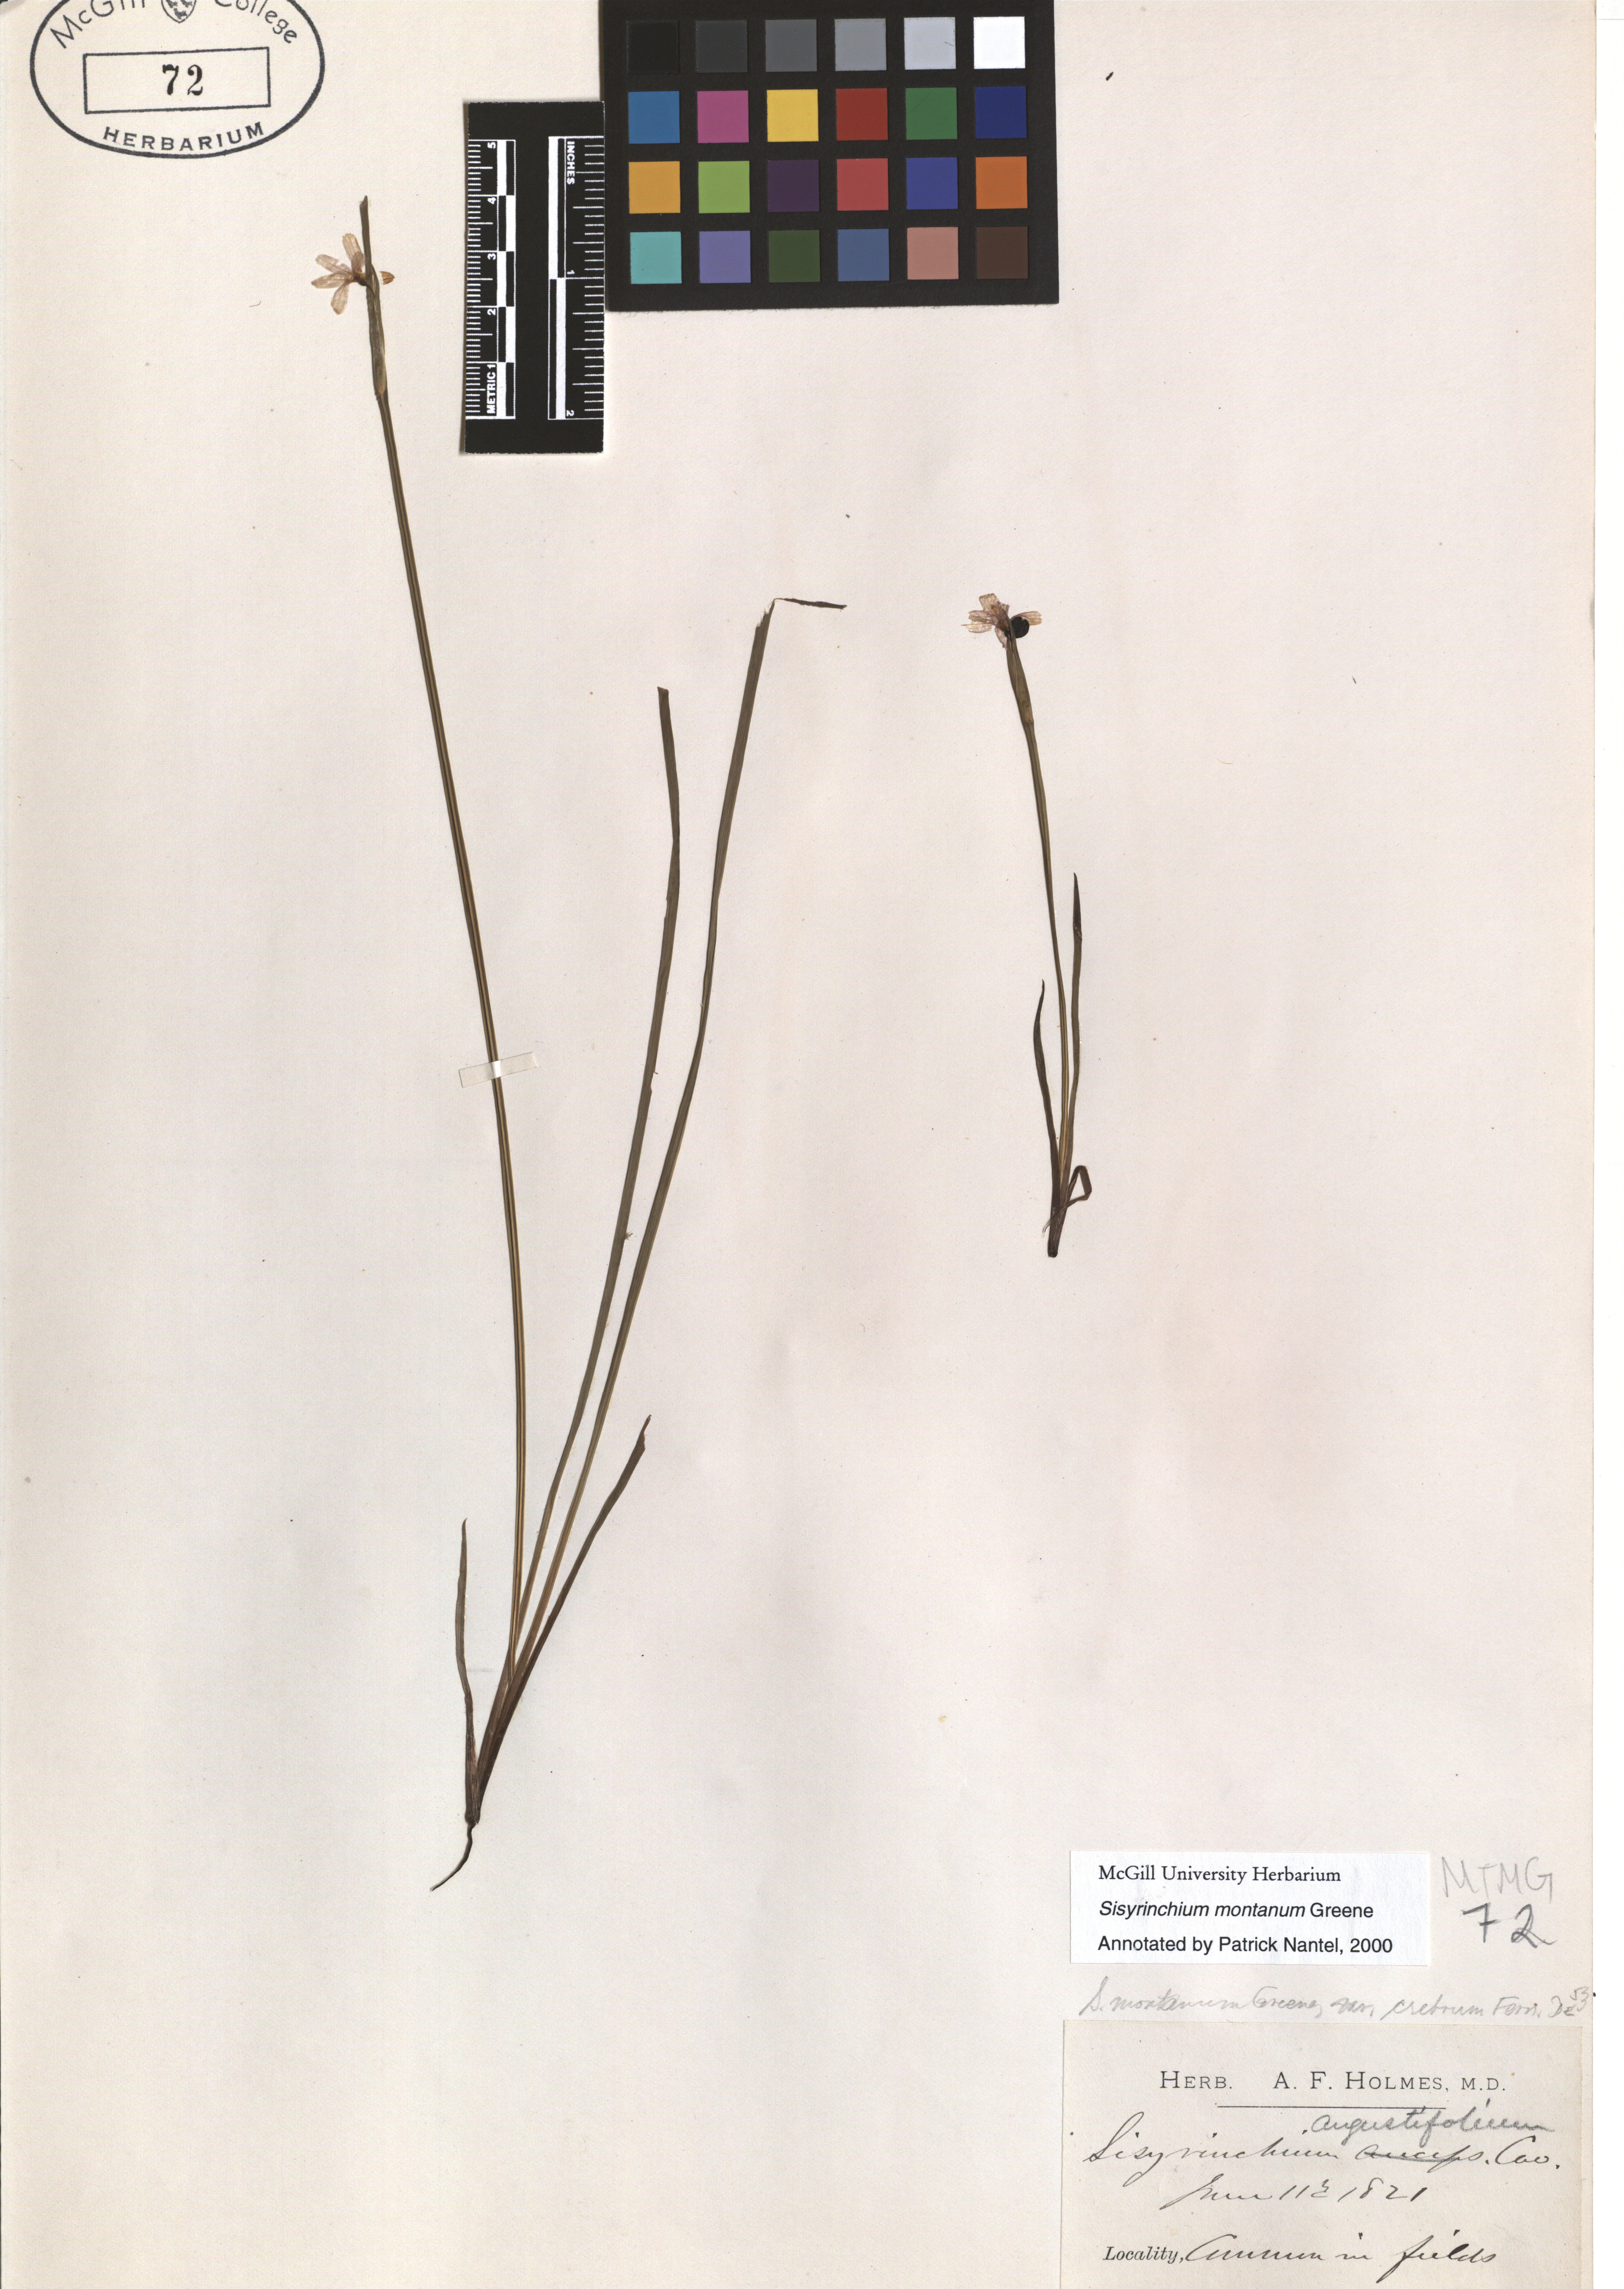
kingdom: Plantae
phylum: Tracheophyta
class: Liliopsida
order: Asparagales
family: Iridaceae
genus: Sisyrinchium
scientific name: Sisyrinchium montanum
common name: American blue-eyed-grass
